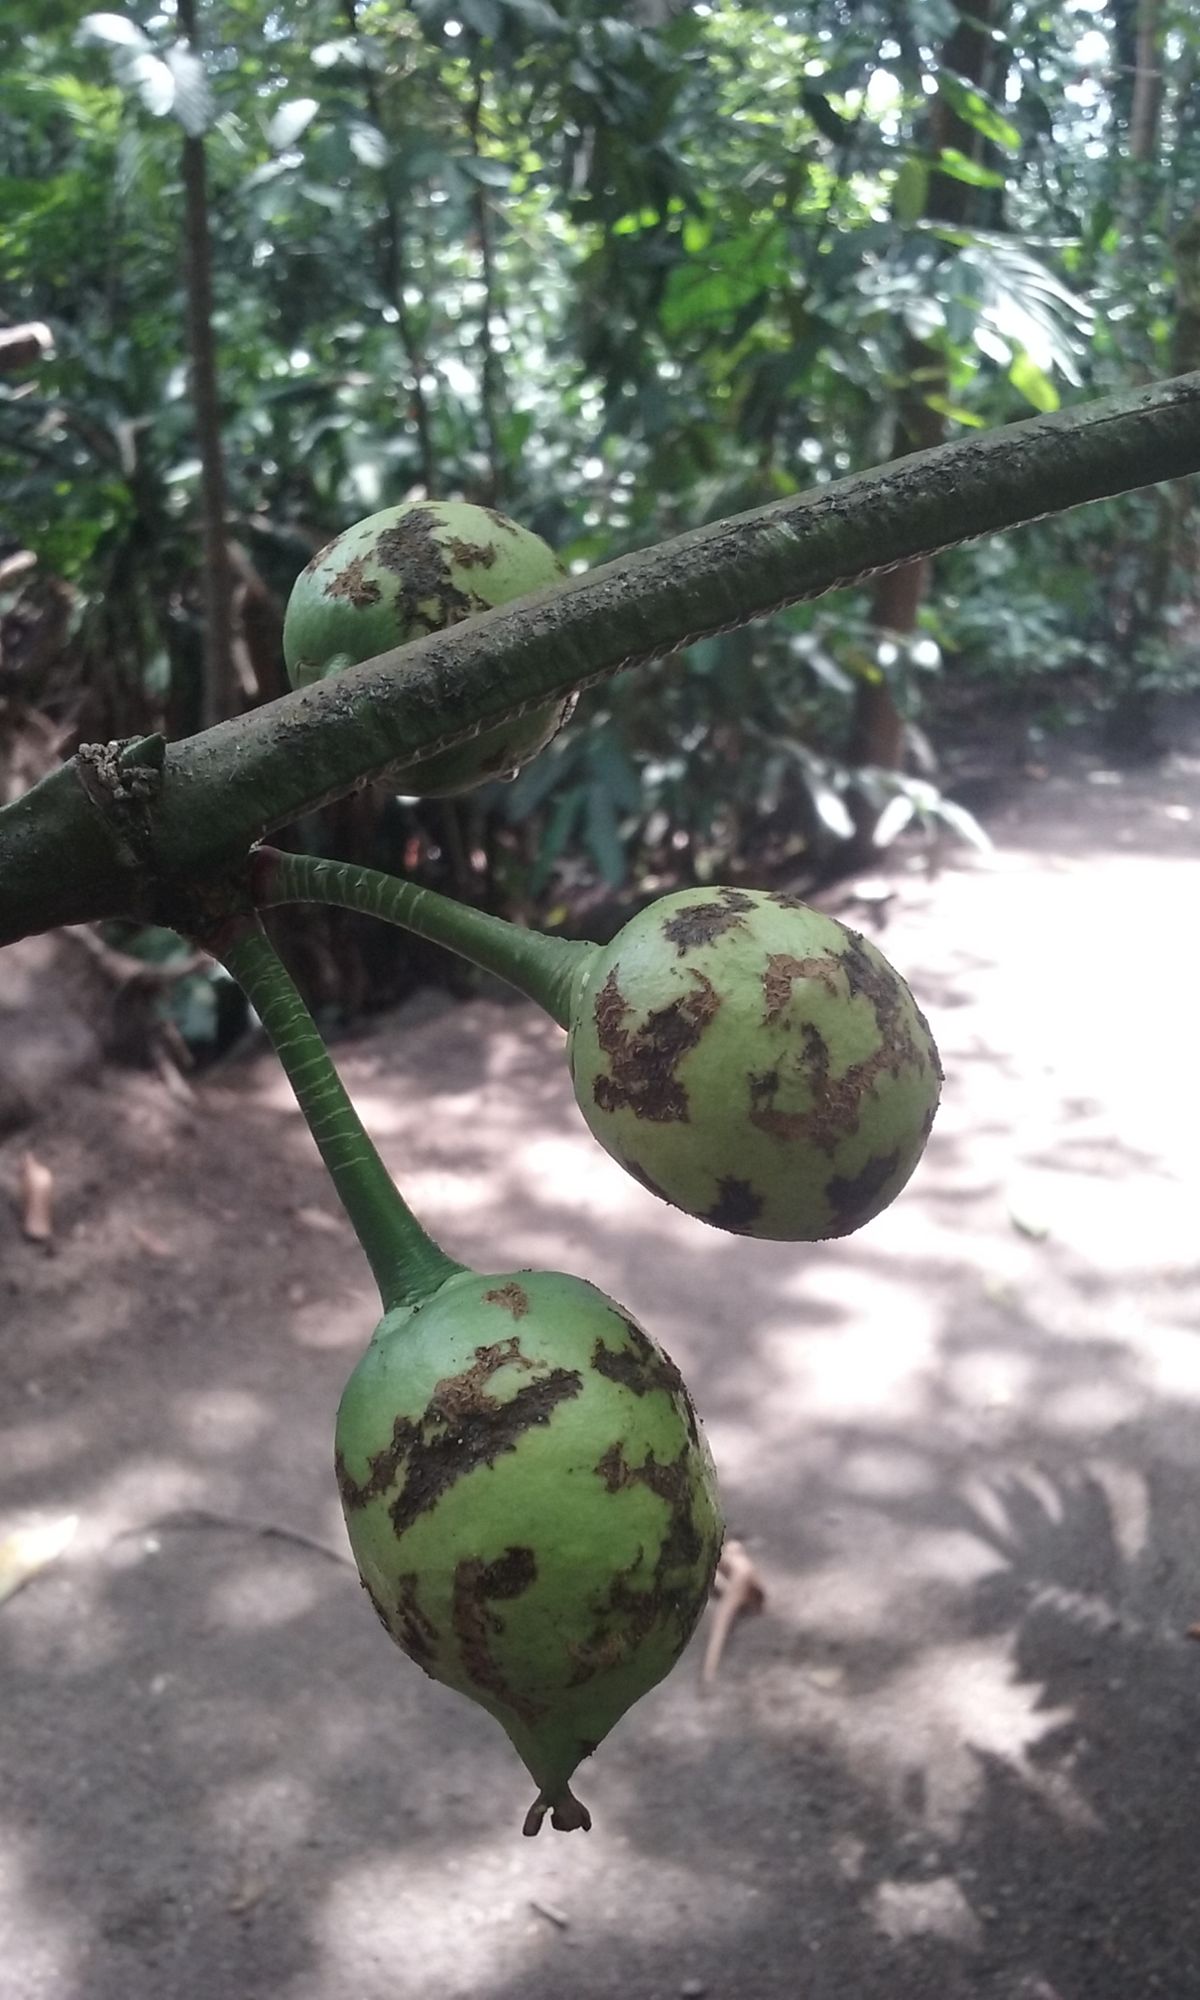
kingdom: Plantae
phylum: Tracheophyta
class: Magnoliopsida
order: Malpighiales
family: Clusiaceae
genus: Garcinia
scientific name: Garcinia mangostana
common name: Mangosteen
